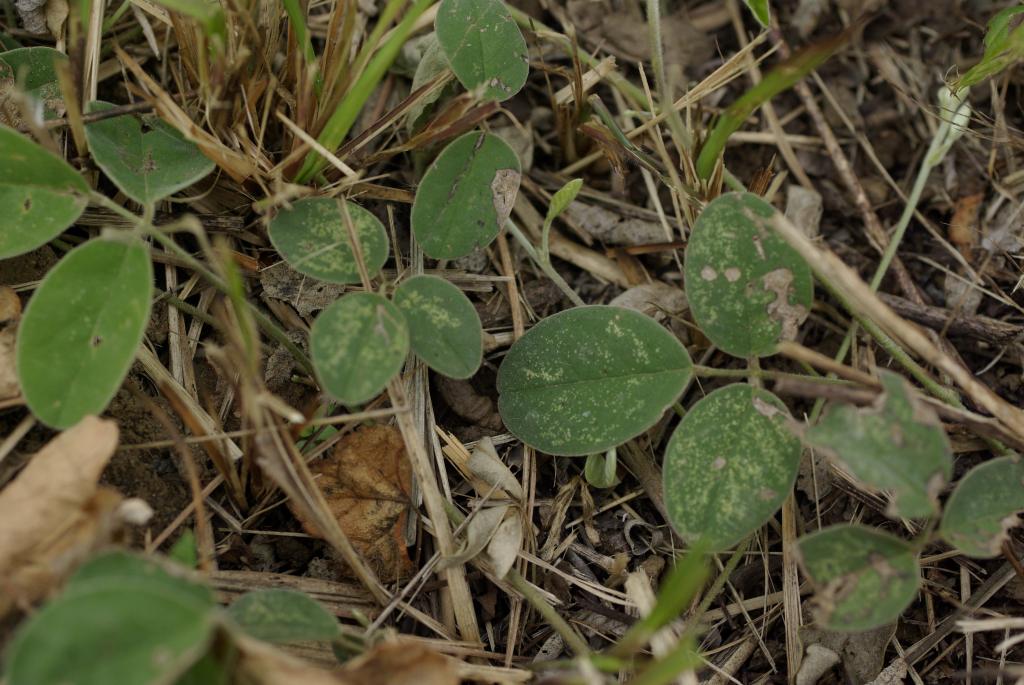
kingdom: Plantae
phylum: Tracheophyta
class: Magnoliopsida
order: Fabales
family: Fabaceae
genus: Galactia
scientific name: Galactia tashiroi
